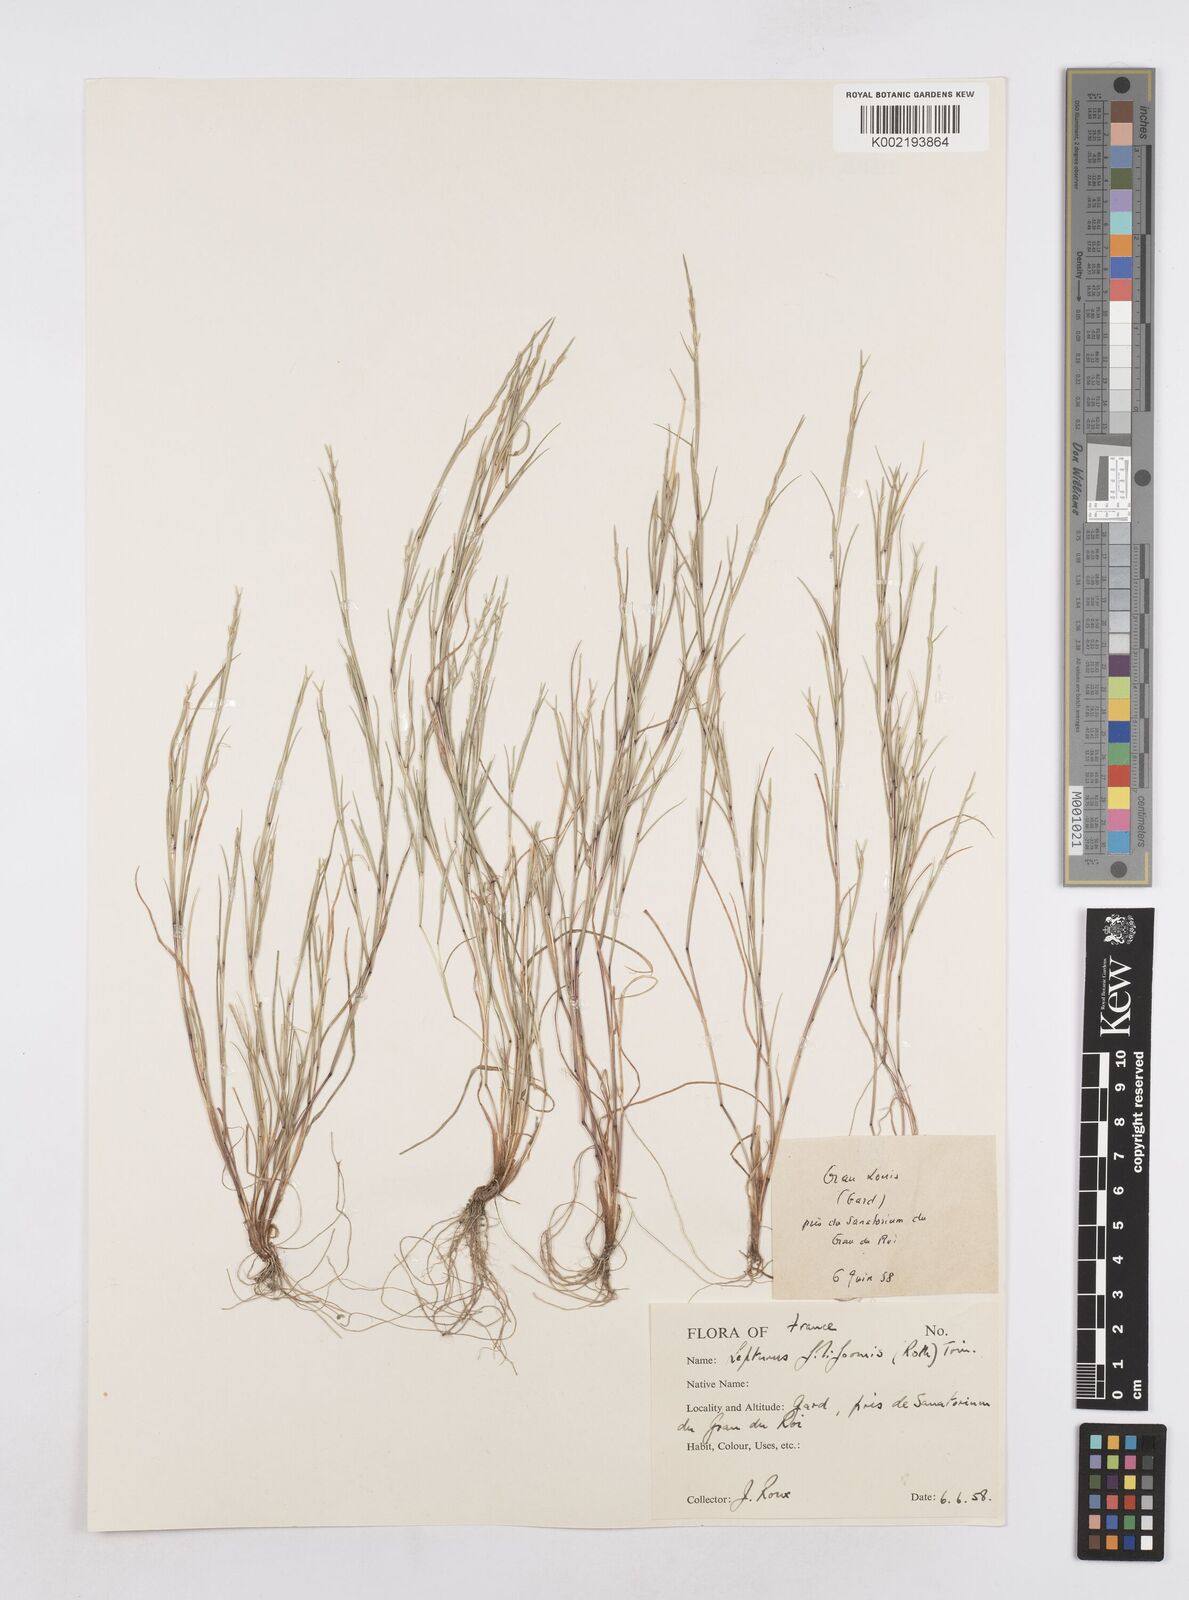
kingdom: Plantae
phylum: Tracheophyta
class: Liliopsida
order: Poales
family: Poaceae
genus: Parapholis
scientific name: Parapholis strigosa
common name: Hard-grass
